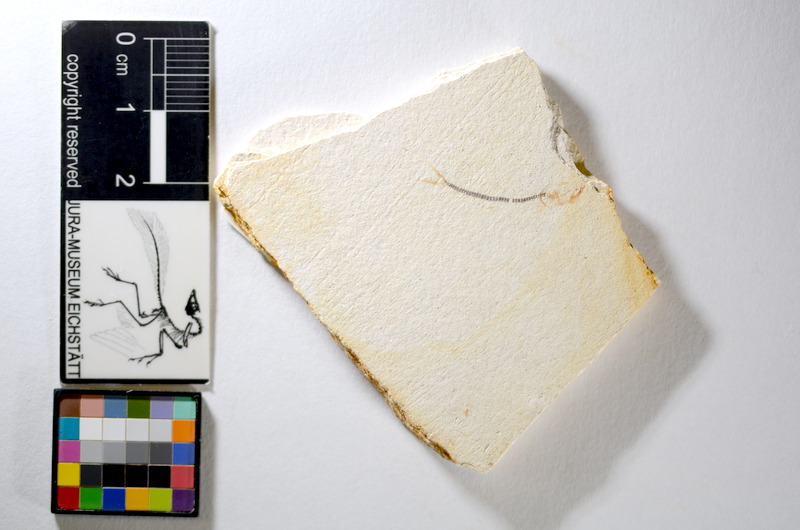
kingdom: Animalia
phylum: Chordata
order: Salmoniformes
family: Orthogonikleithridae
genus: Orthogonikleithrus
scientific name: Orthogonikleithrus hoelli
